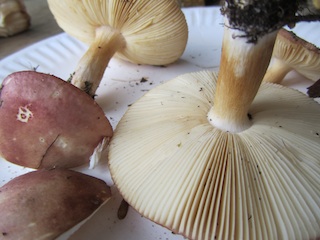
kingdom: Fungi
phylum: Basidiomycota
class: Agaricomycetes
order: Russulales
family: Russulaceae
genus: Russula
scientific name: Russula versicolor
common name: foranderlig skørhat
